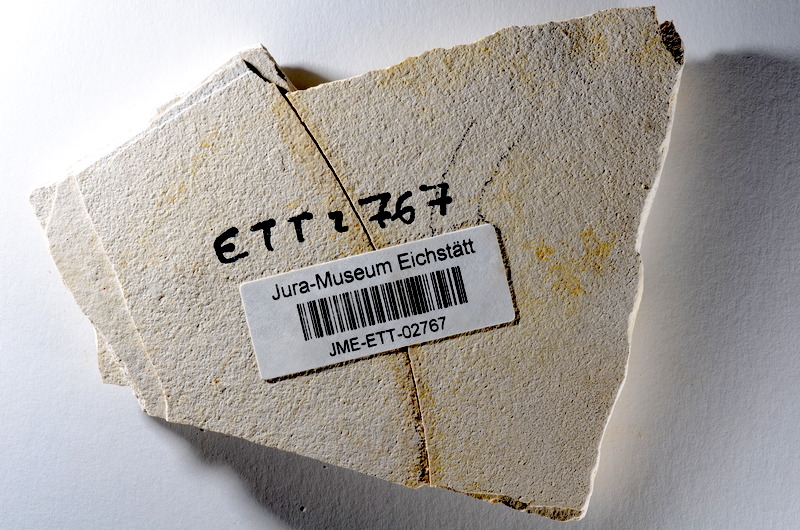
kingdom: Animalia
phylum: Chordata
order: Salmoniformes
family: Orthogonikleithridae
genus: Orthogonikleithrus
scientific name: Orthogonikleithrus hoelli
